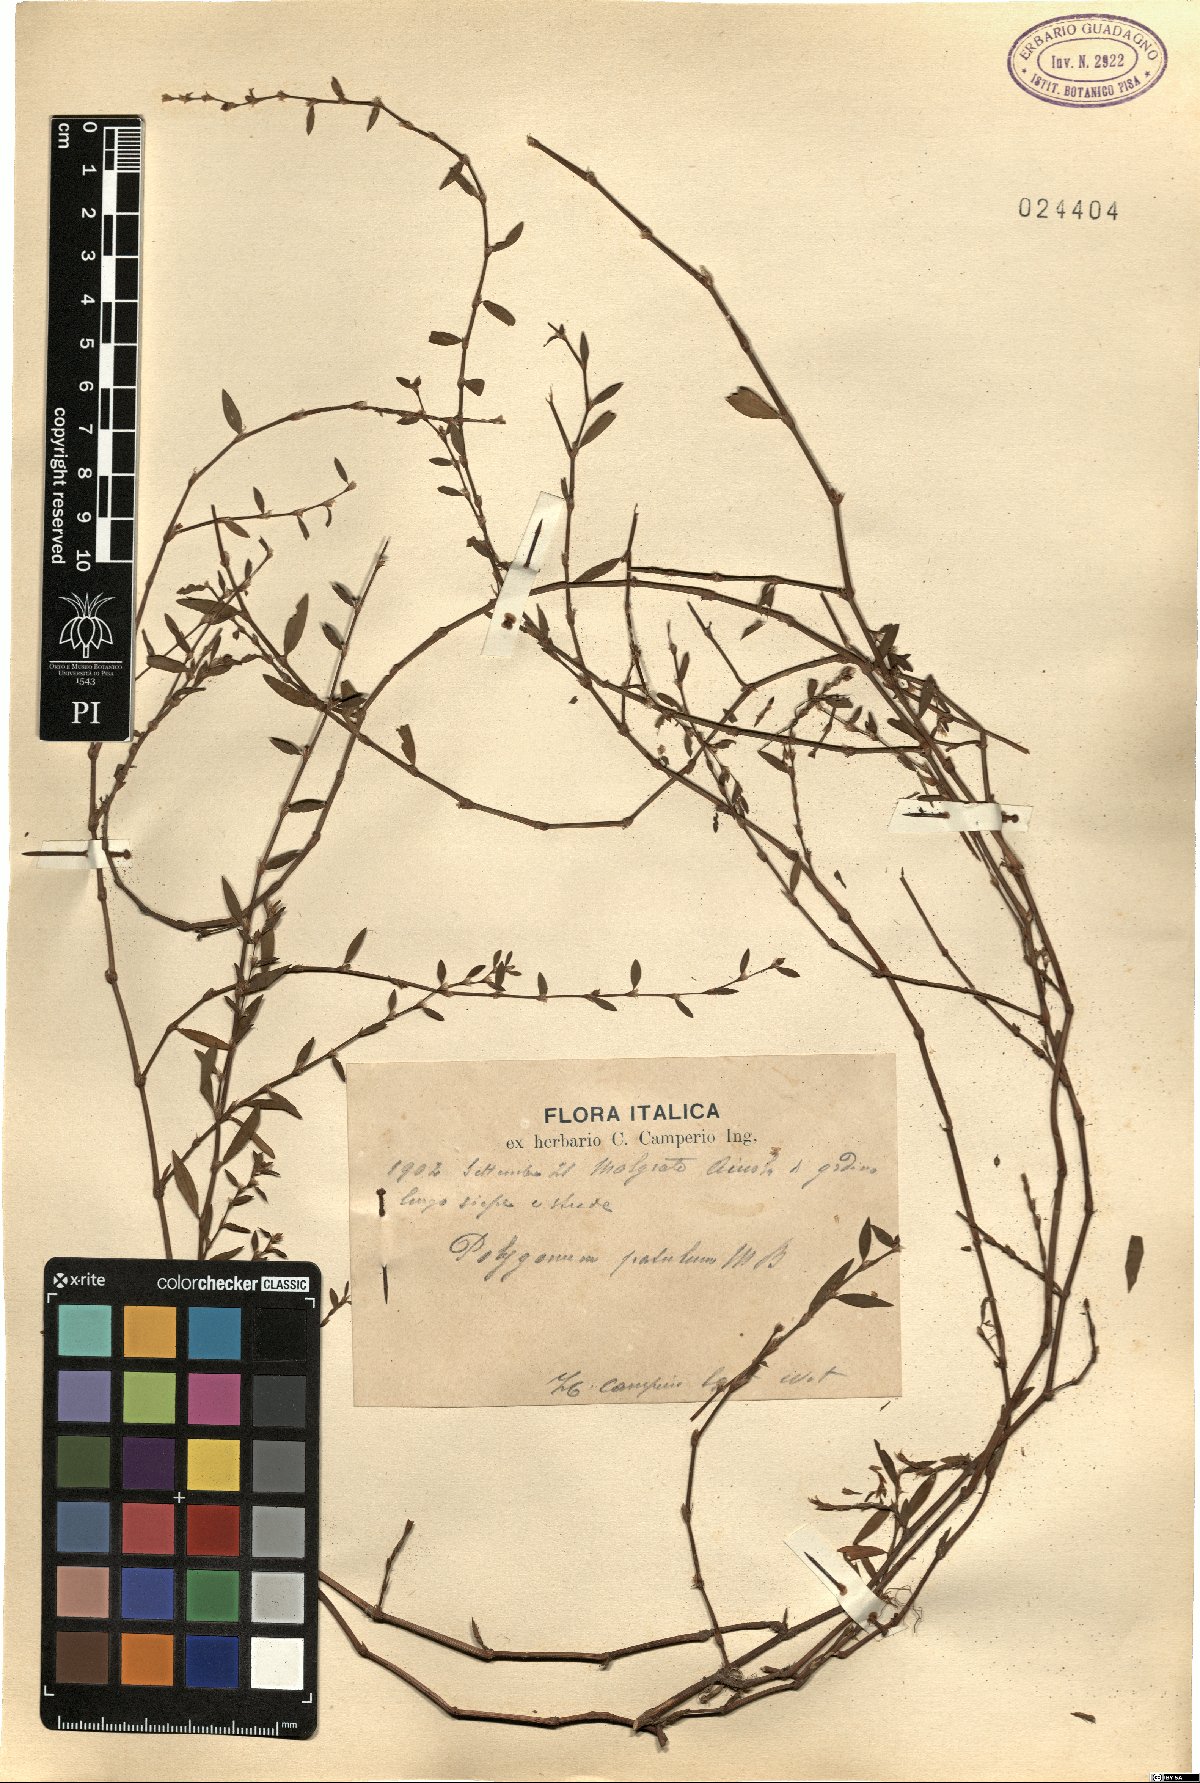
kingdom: Plantae
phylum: Tracheophyta
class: Magnoliopsida
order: Caryophyllales
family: Polygonaceae
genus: Polygonum
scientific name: Polygonum patulum
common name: Red-knotgrass
